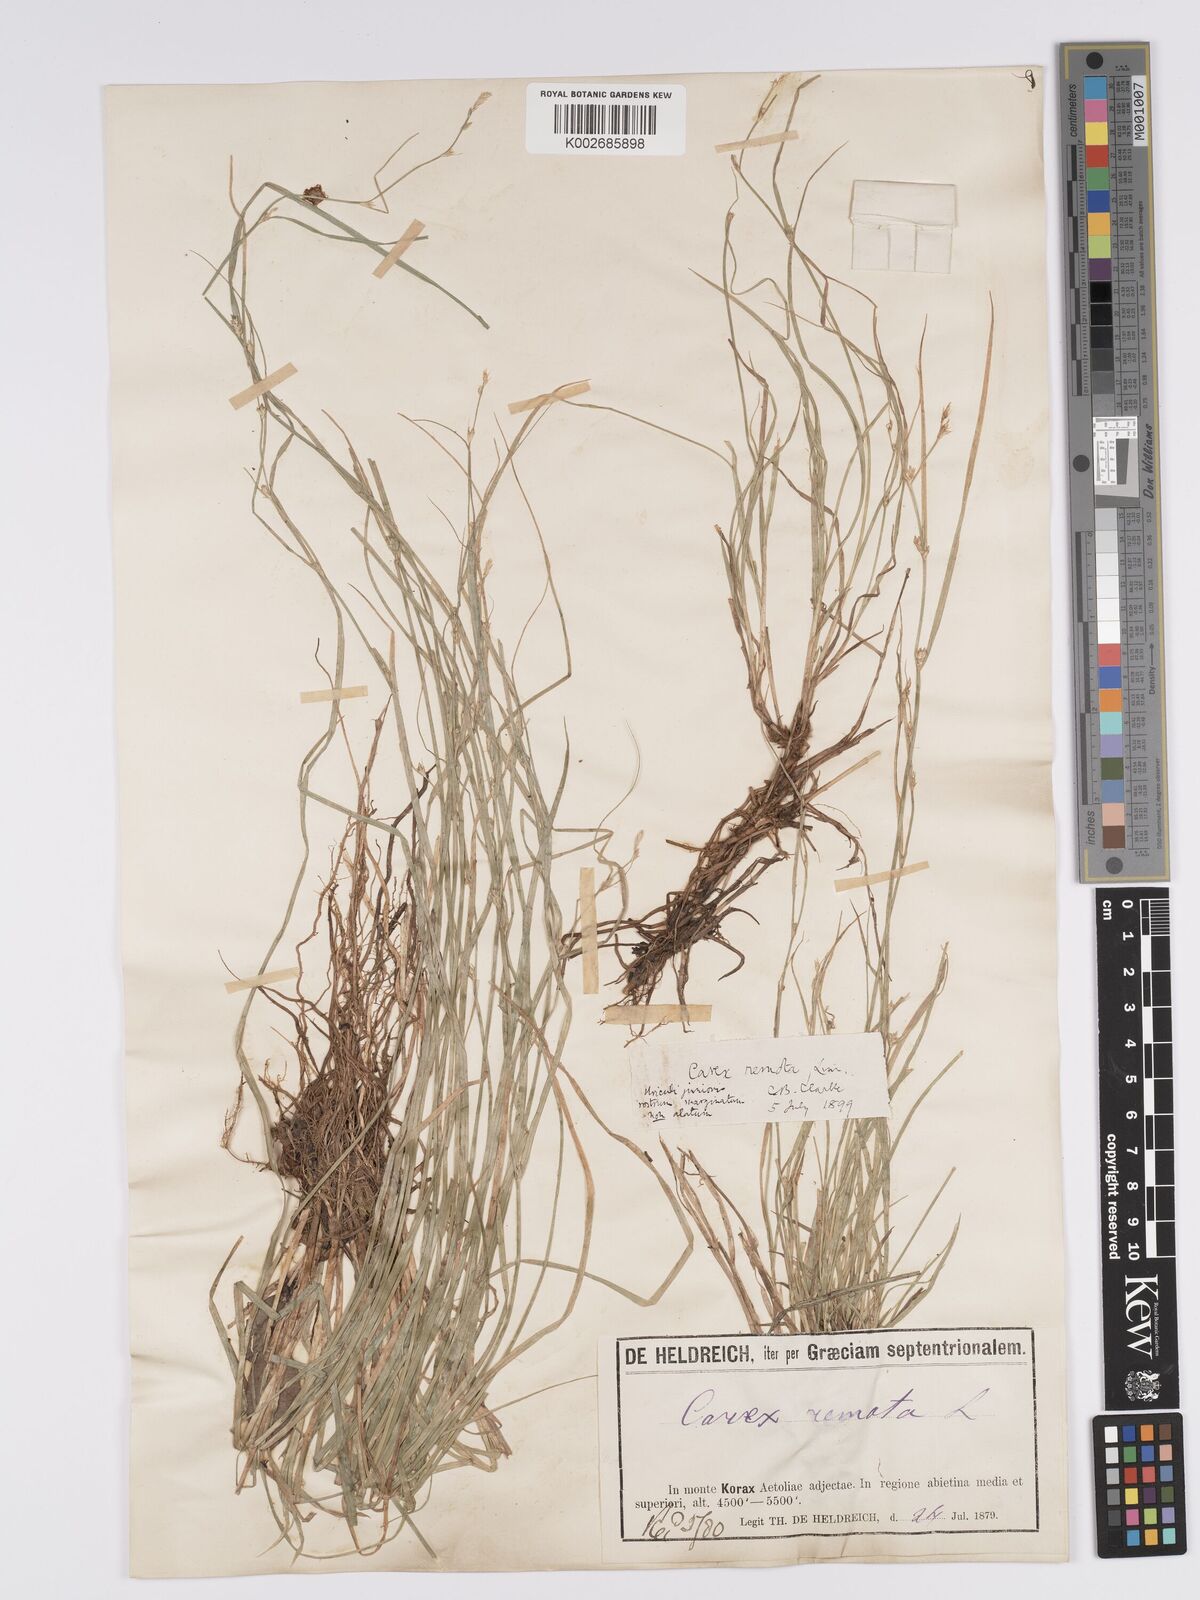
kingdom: Plantae
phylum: Tracheophyta
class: Liliopsida
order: Poales
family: Cyperaceae
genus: Carex
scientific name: Carex remota
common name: Remote sedge
